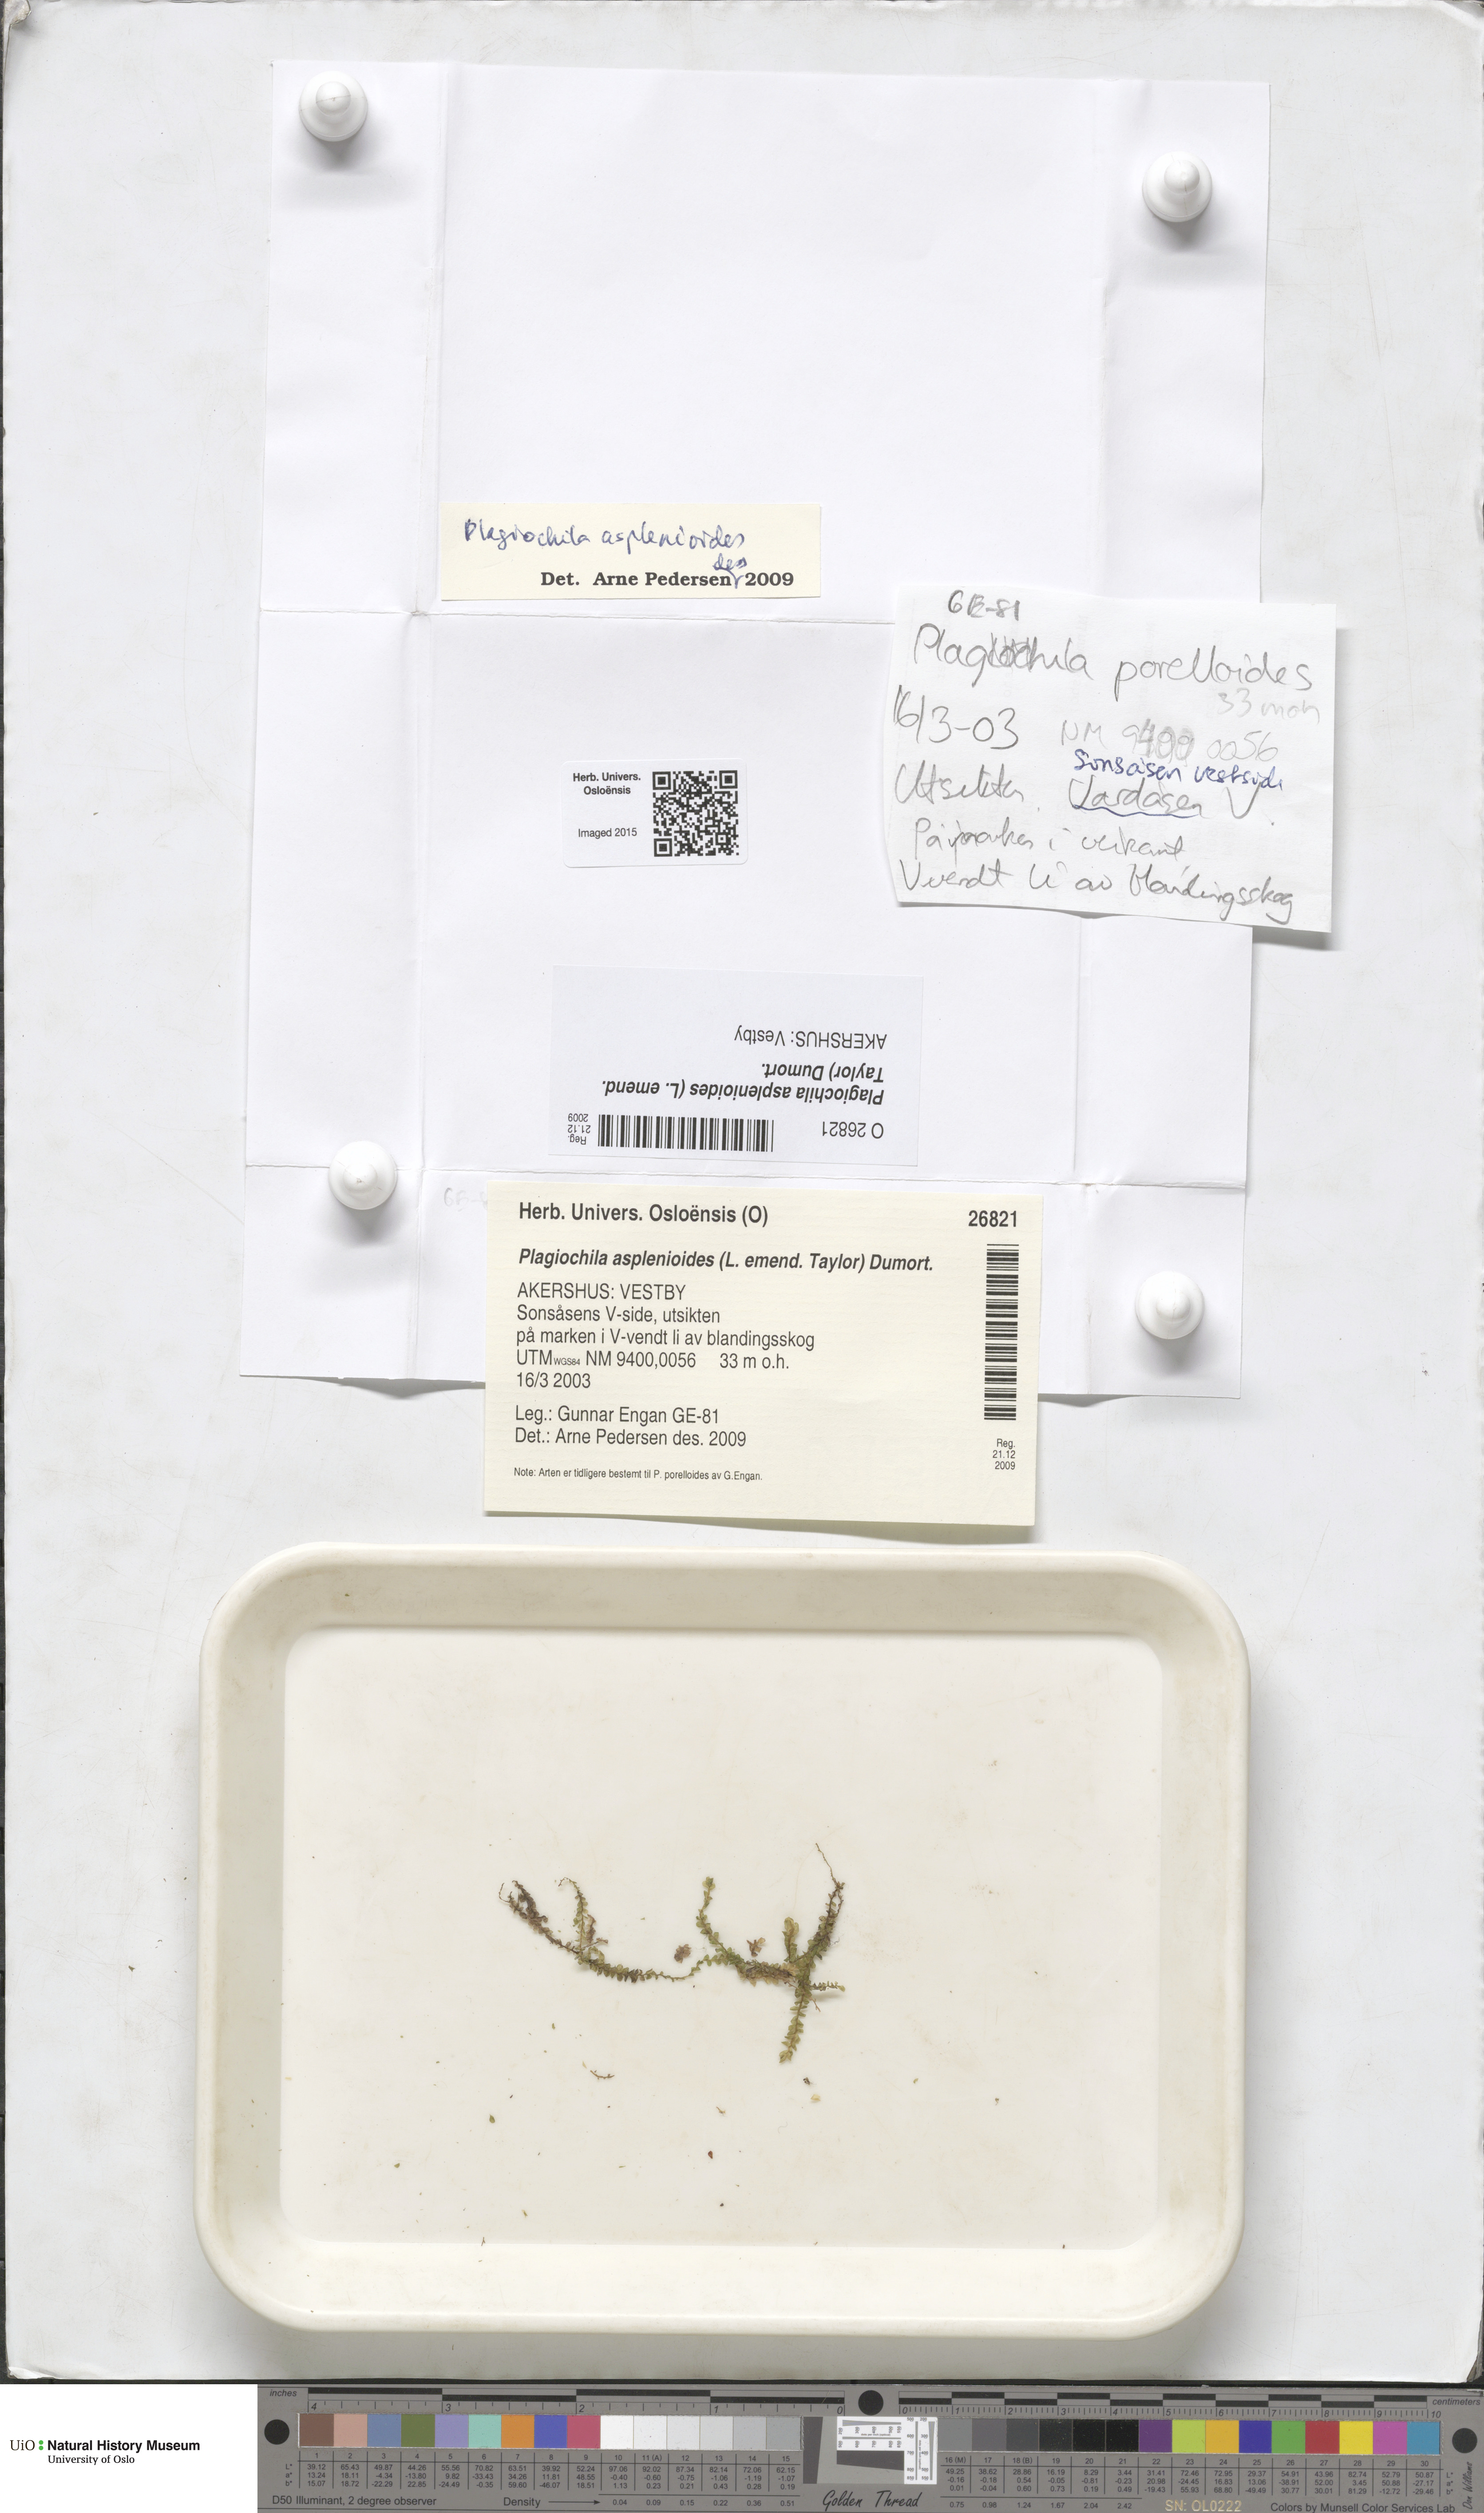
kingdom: Plantae
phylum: Marchantiophyta
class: Jungermanniopsida
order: Jungermanniales
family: Plagiochilaceae
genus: Plagiochila
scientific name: Plagiochila asplenioides
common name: Greater featherwort
